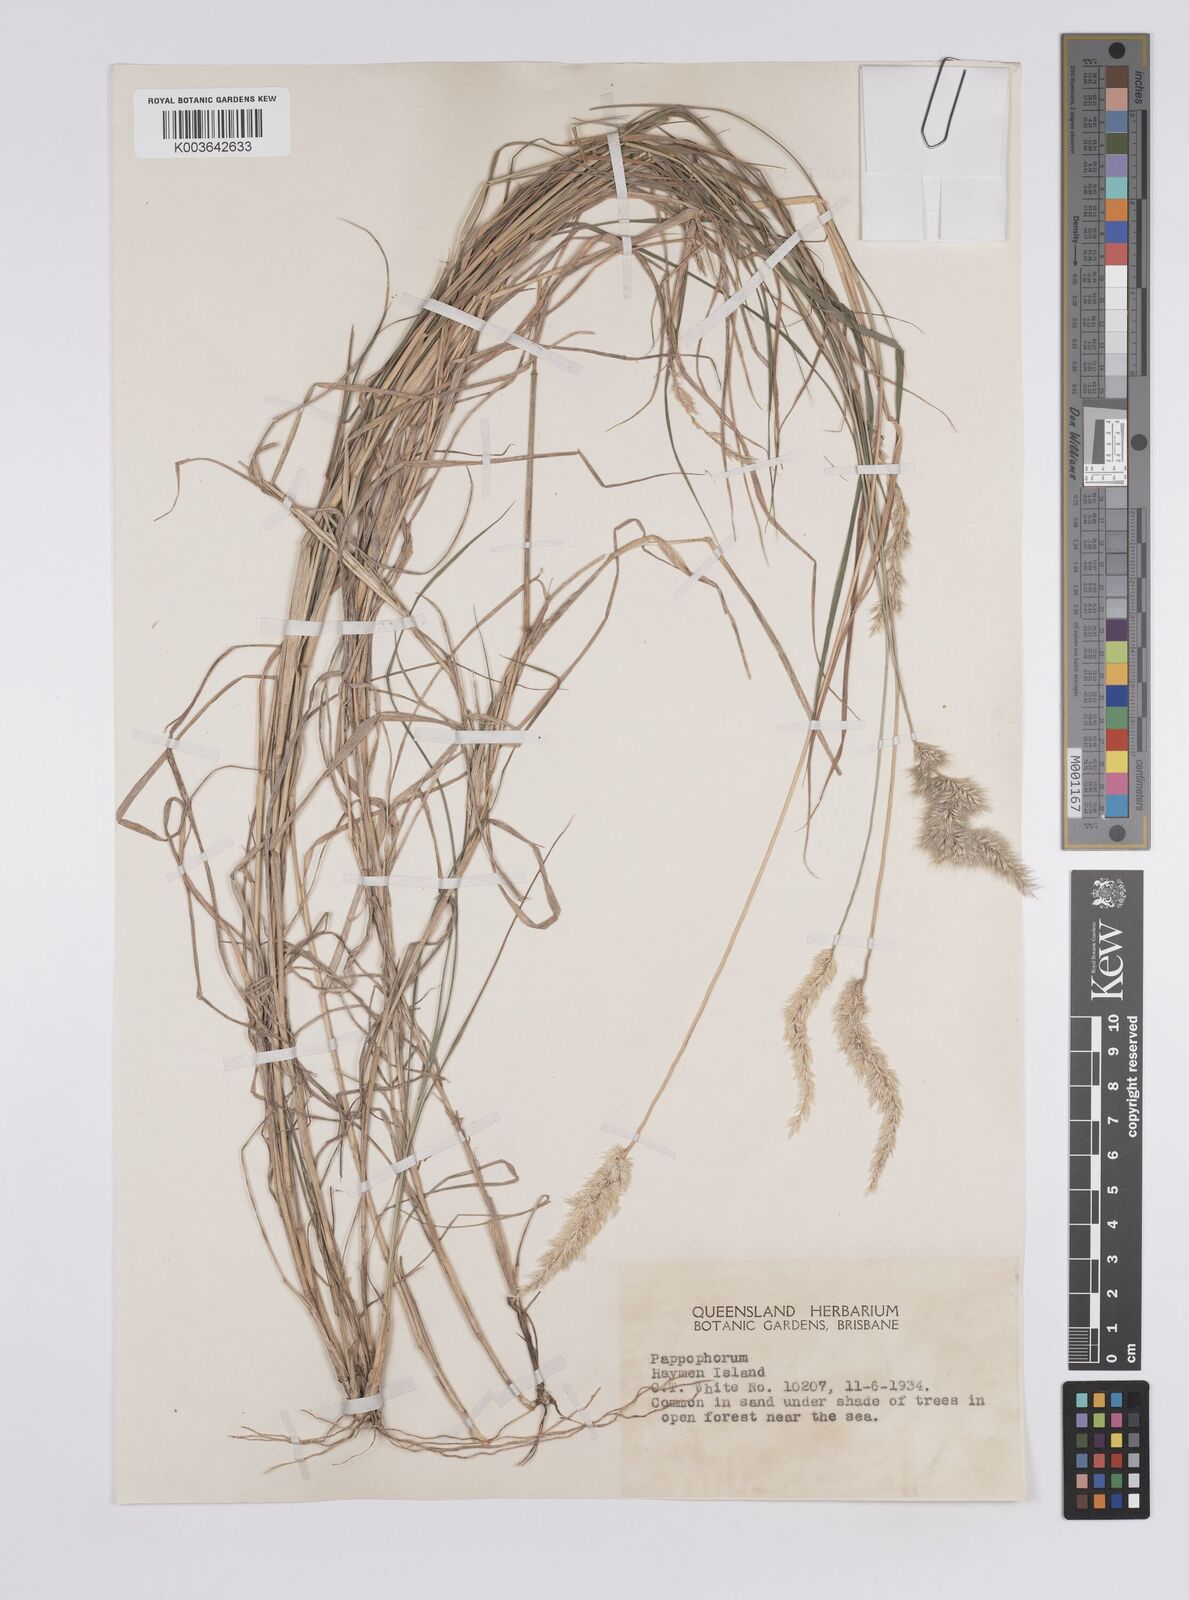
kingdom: Plantae
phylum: Tracheophyta
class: Liliopsida
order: Poales
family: Poaceae
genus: Enneapogon
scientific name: Enneapogon nigricans
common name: Pappus grass
